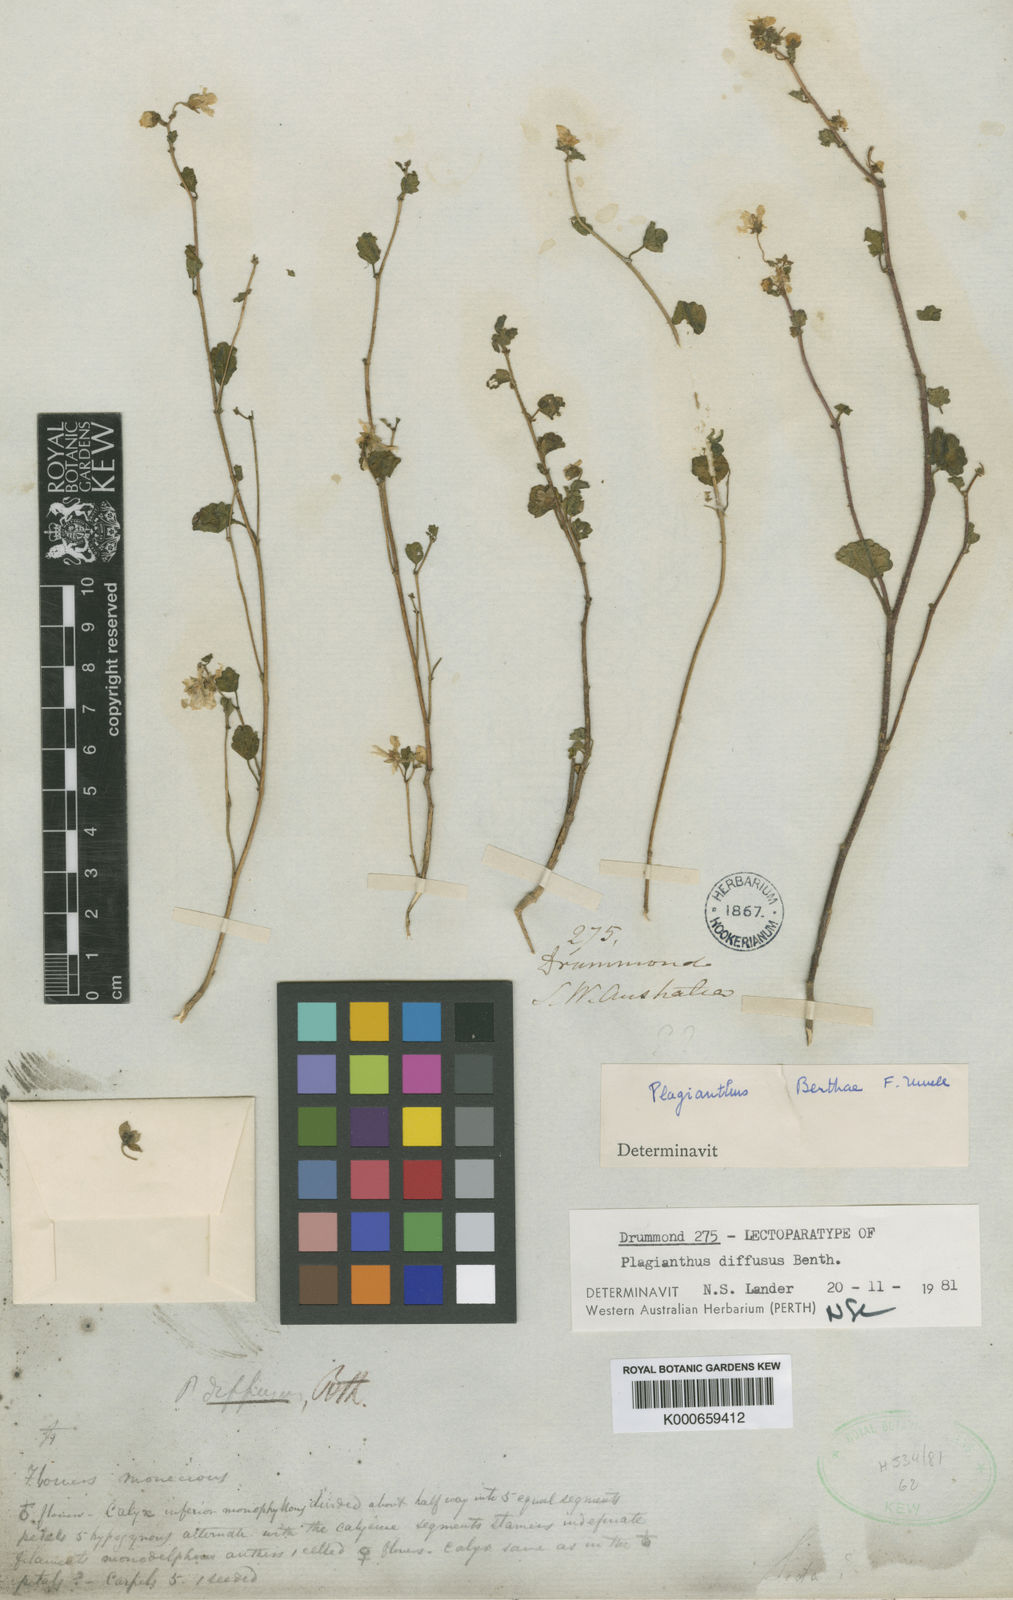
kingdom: Plantae
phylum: Tracheophyta
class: Magnoliopsida
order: Malvales
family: Malvaceae
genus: Lawrencia
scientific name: Lawrencia diffusa
